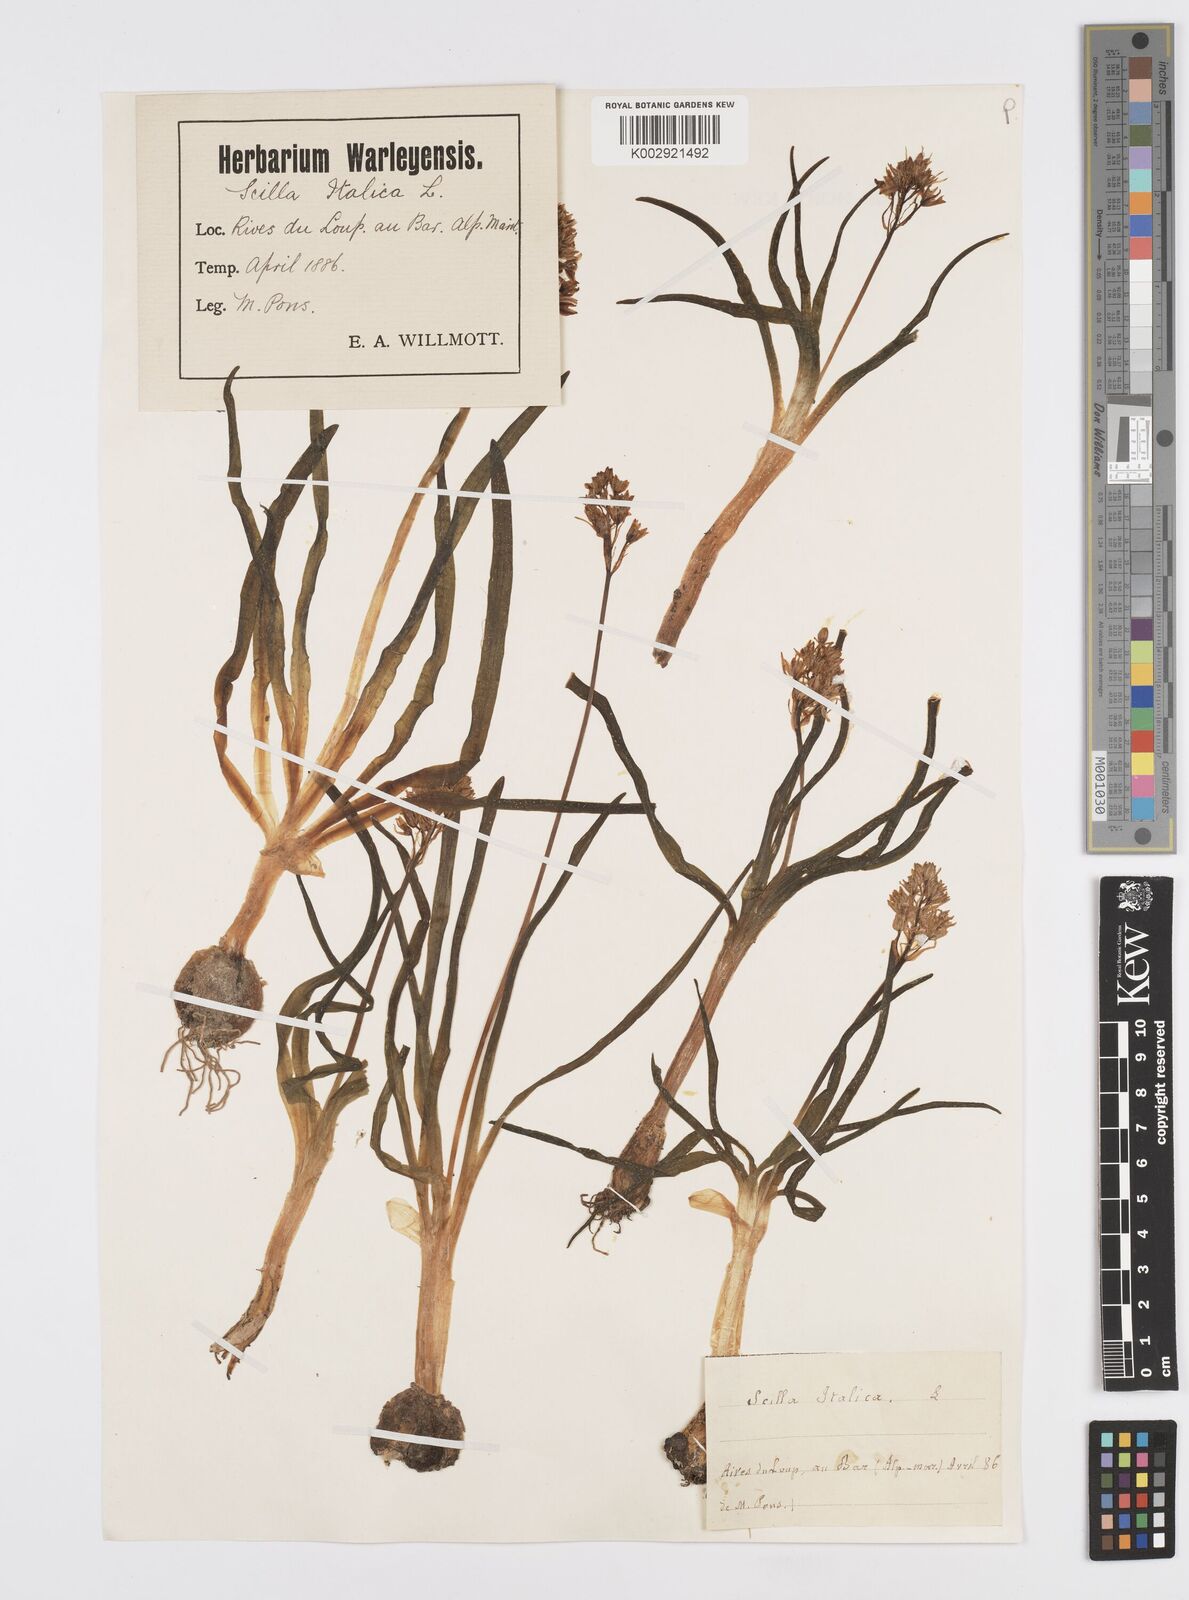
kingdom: Plantae
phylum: Tracheophyta
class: Liliopsida
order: Asparagales
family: Asparagaceae
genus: Hyacinthoides
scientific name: Hyacinthoides italica
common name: Italian bluebell
